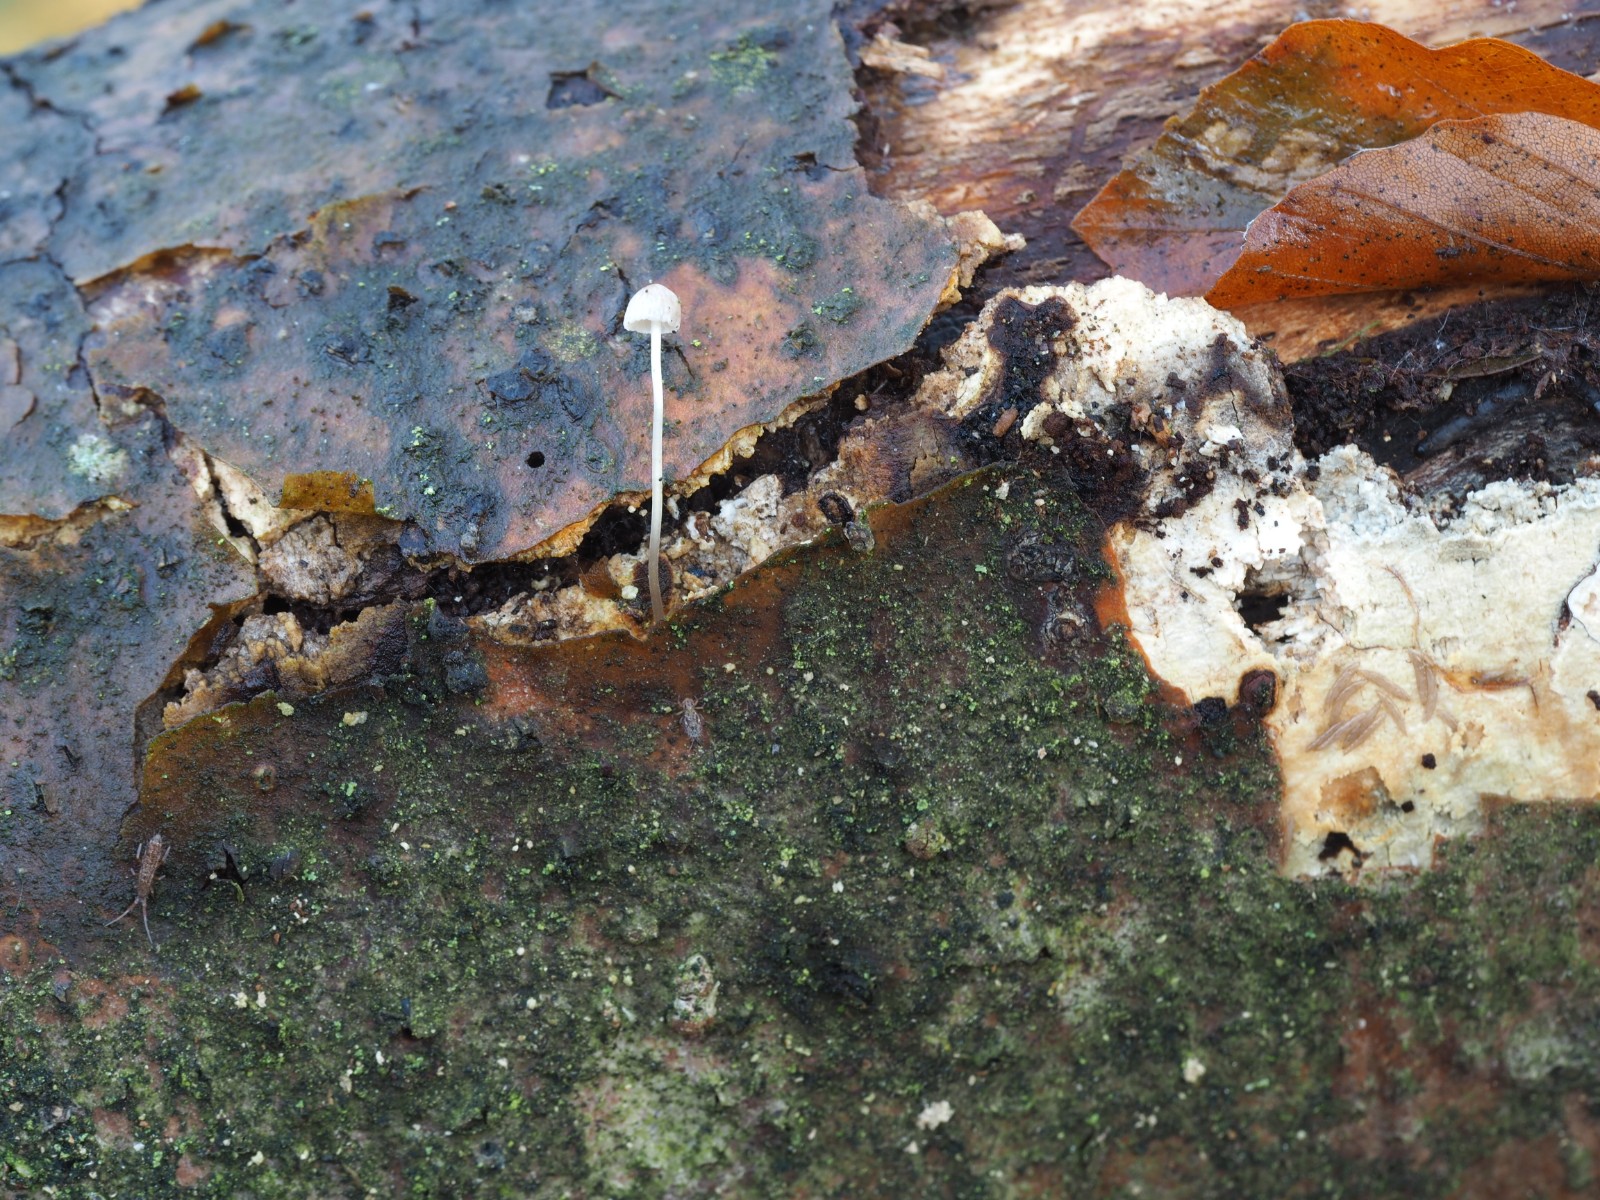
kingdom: Fungi
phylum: Basidiomycota
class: Agaricomycetes
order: Agaricales
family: Mycenaceae
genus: Mycena
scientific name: Mycena vitilis
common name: blankstokket huesvamp
